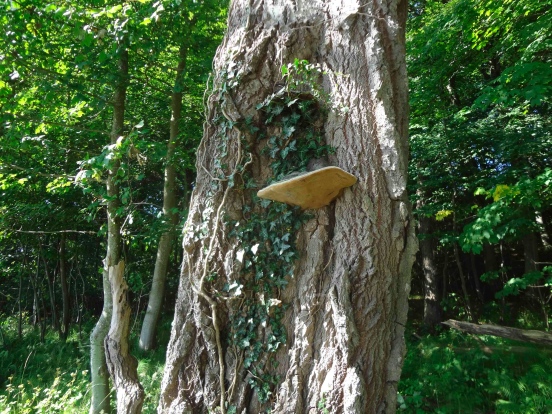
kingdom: Fungi
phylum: Basidiomycota
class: Agaricomycetes
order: Hymenochaetales
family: Hymenochaetaceae
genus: Phellinus
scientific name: Phellinus populicola
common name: poppel-ildporesvamp
